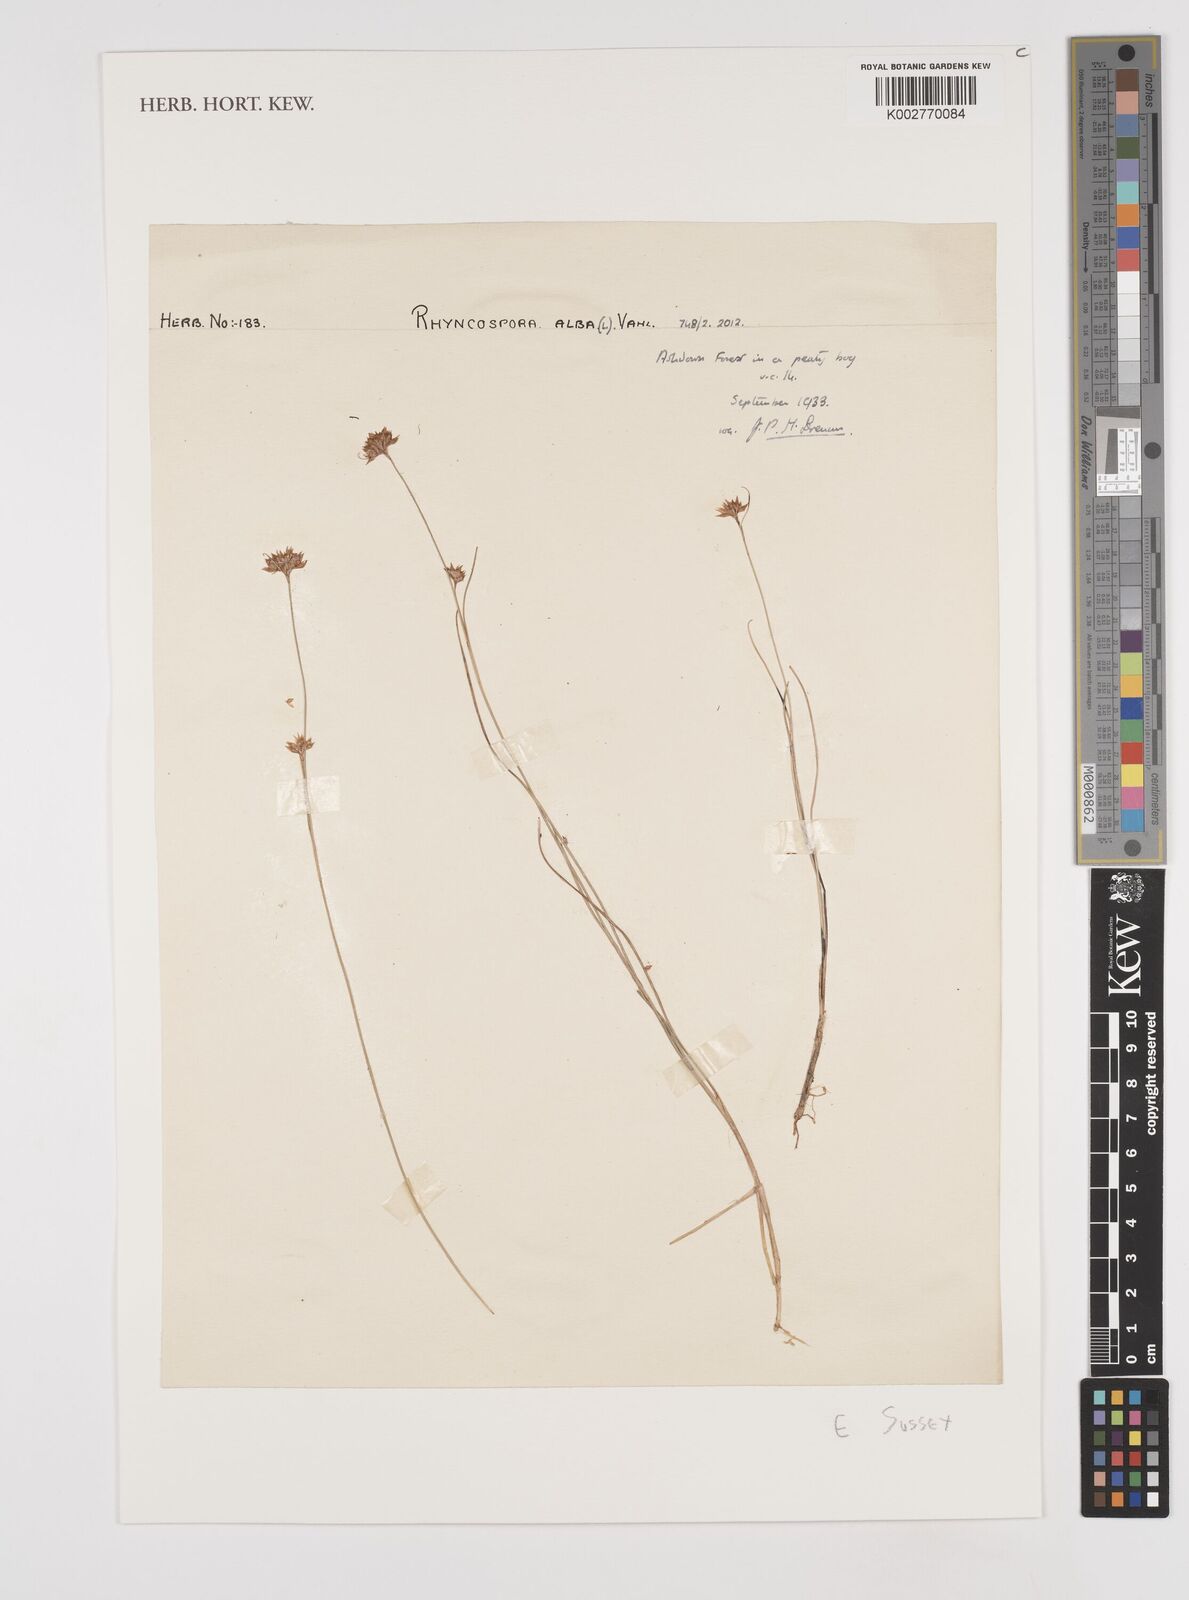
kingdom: Plantae
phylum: Tracheophyta
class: Liliopsida
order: Poales
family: Cyperaceae
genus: Rhynchospora
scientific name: Rhynchospora alba
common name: White beak-sedge
